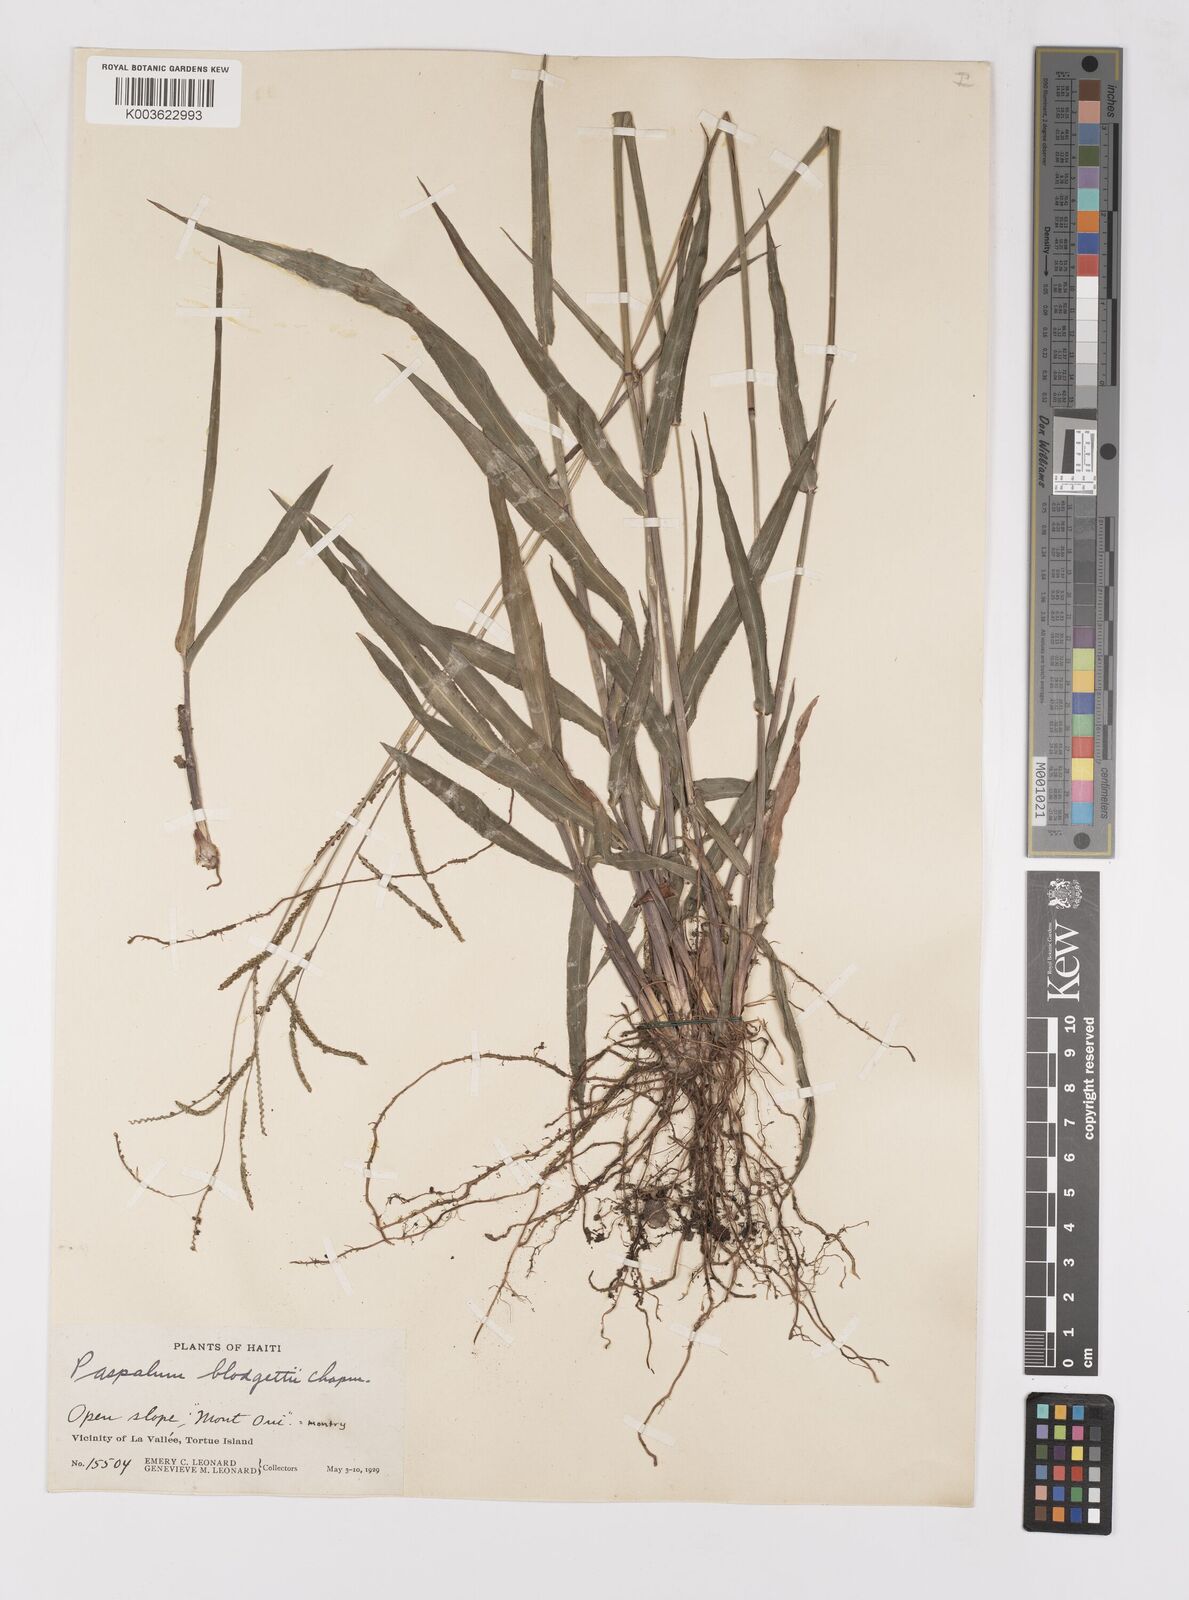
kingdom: Plantae
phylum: Tracheophyta
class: Liliopsida
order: Poales
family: Poaceae
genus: Paspalum
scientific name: Paspalum blodgettii
